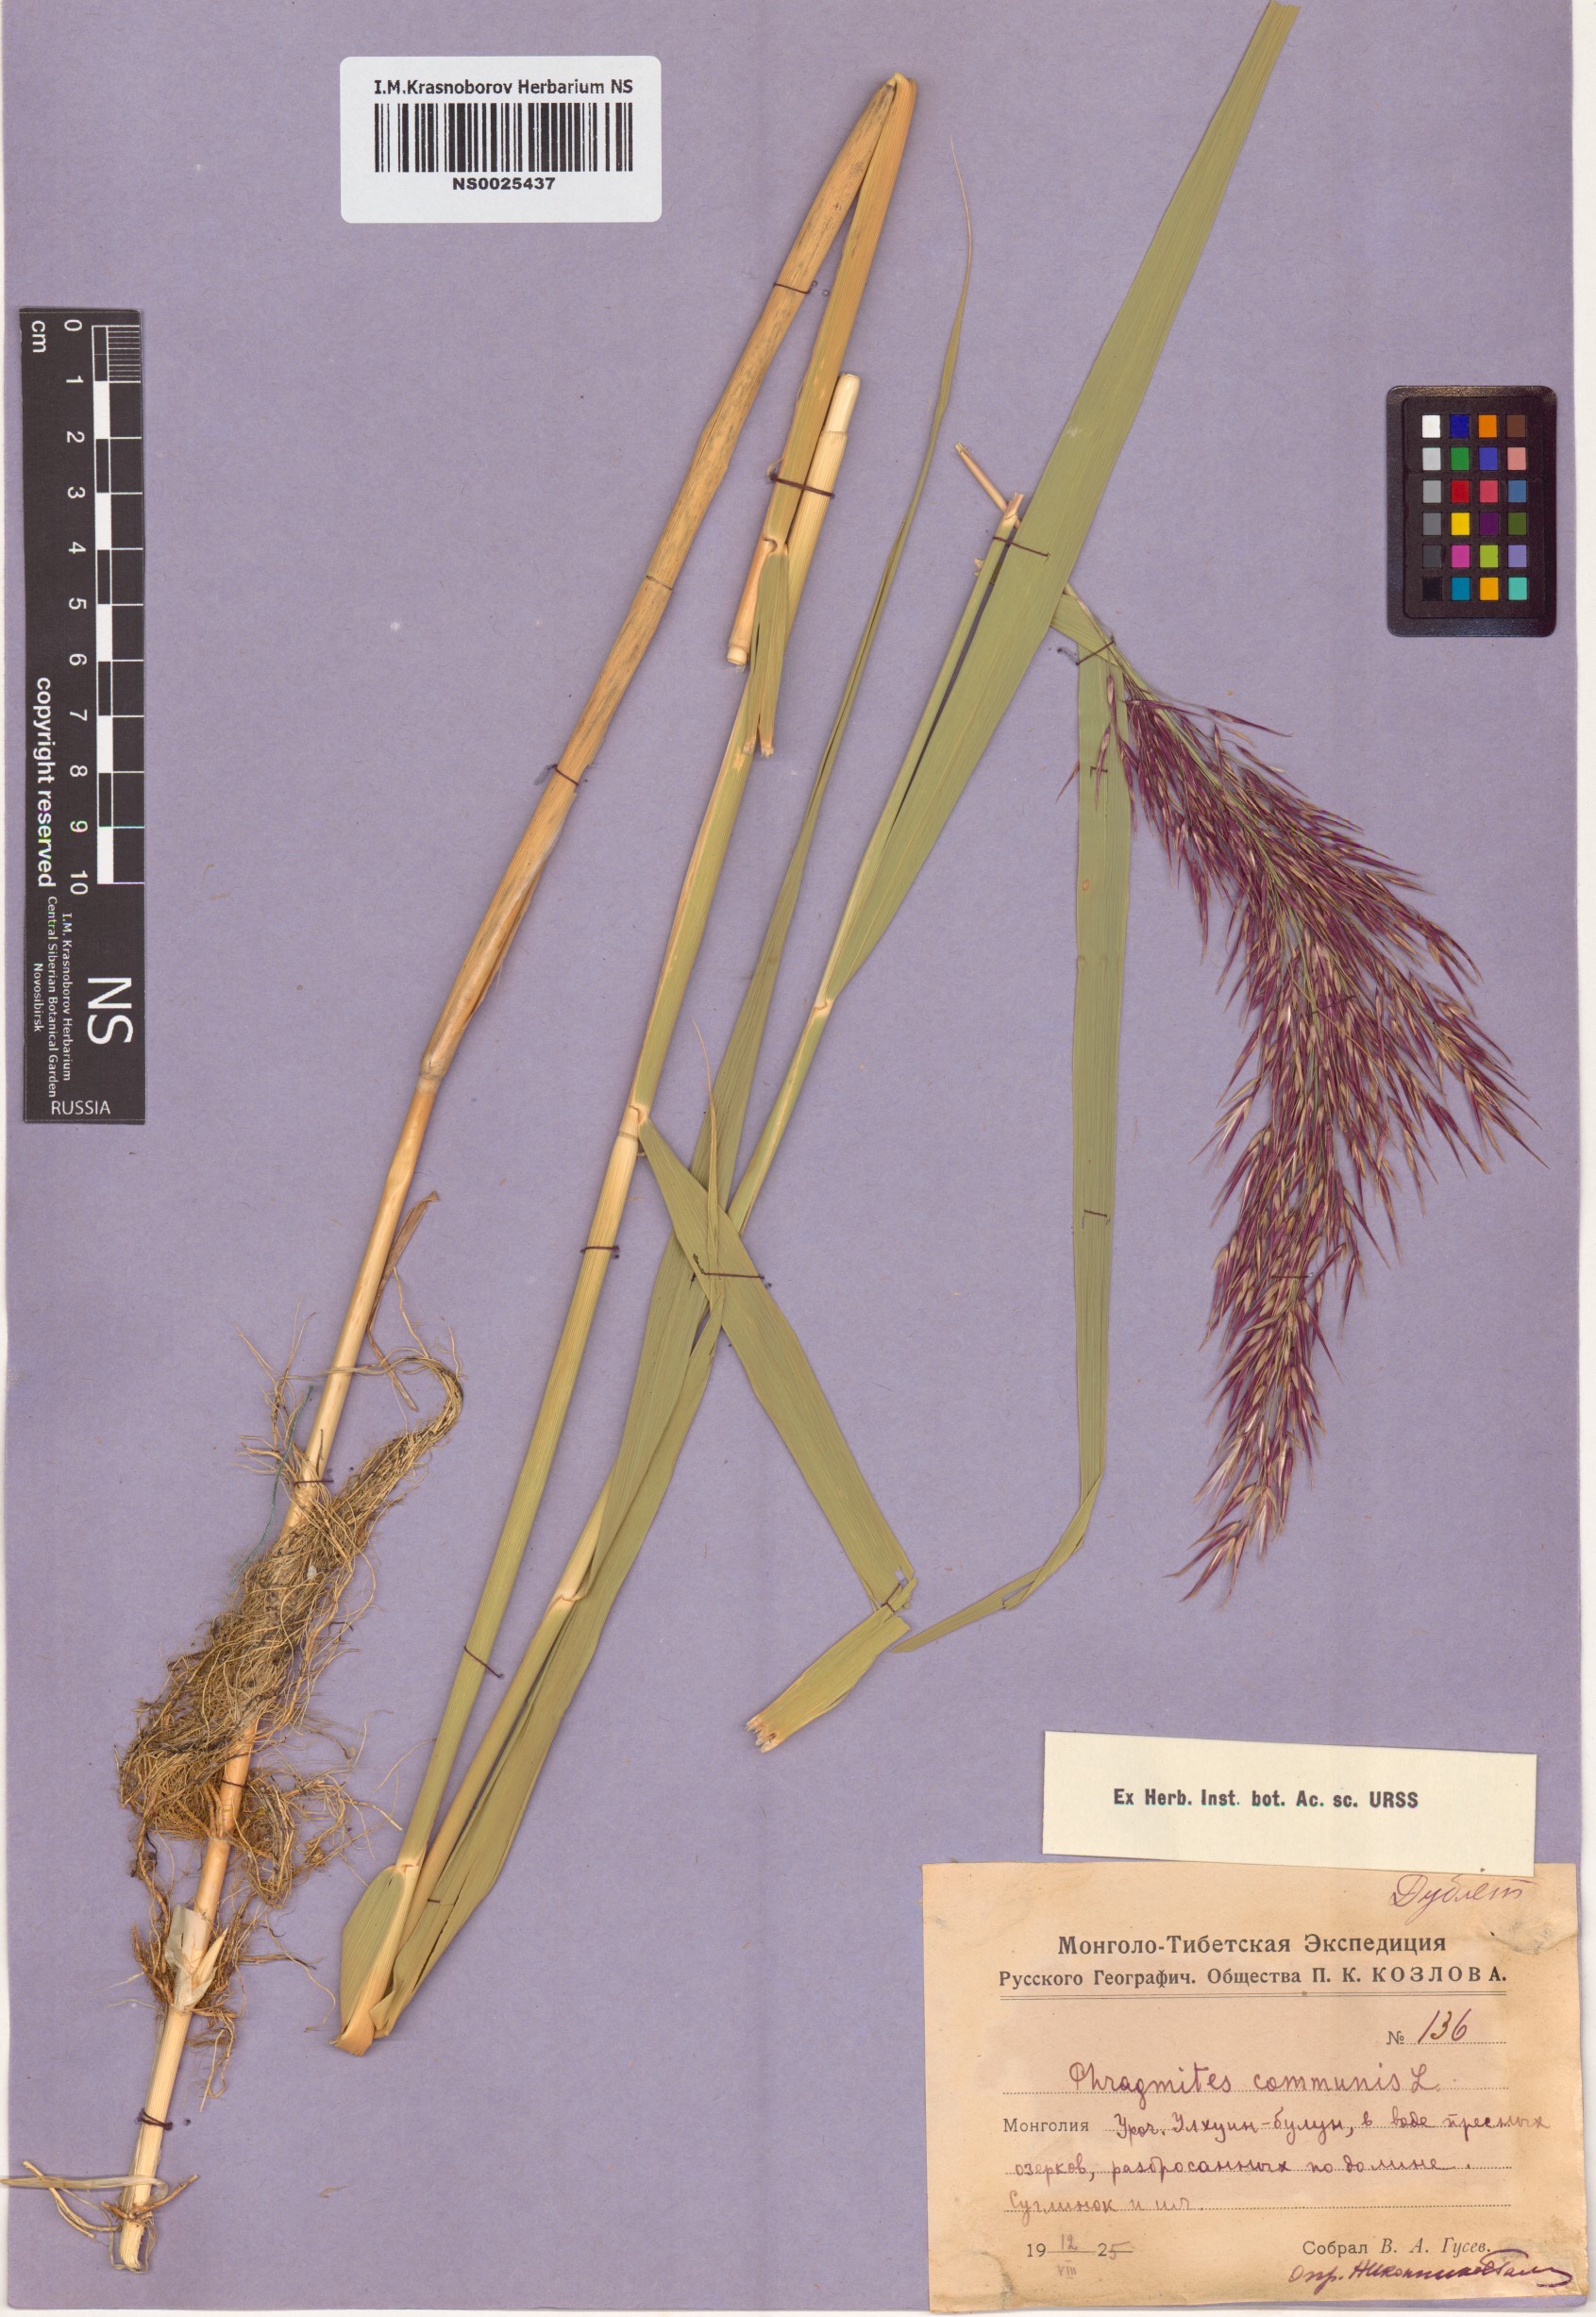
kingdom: Plantae
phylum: Tracheophyta
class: Liliopsida
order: Poales
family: Poaceae
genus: Phragmites
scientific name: Phragmites australis
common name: Common reed
